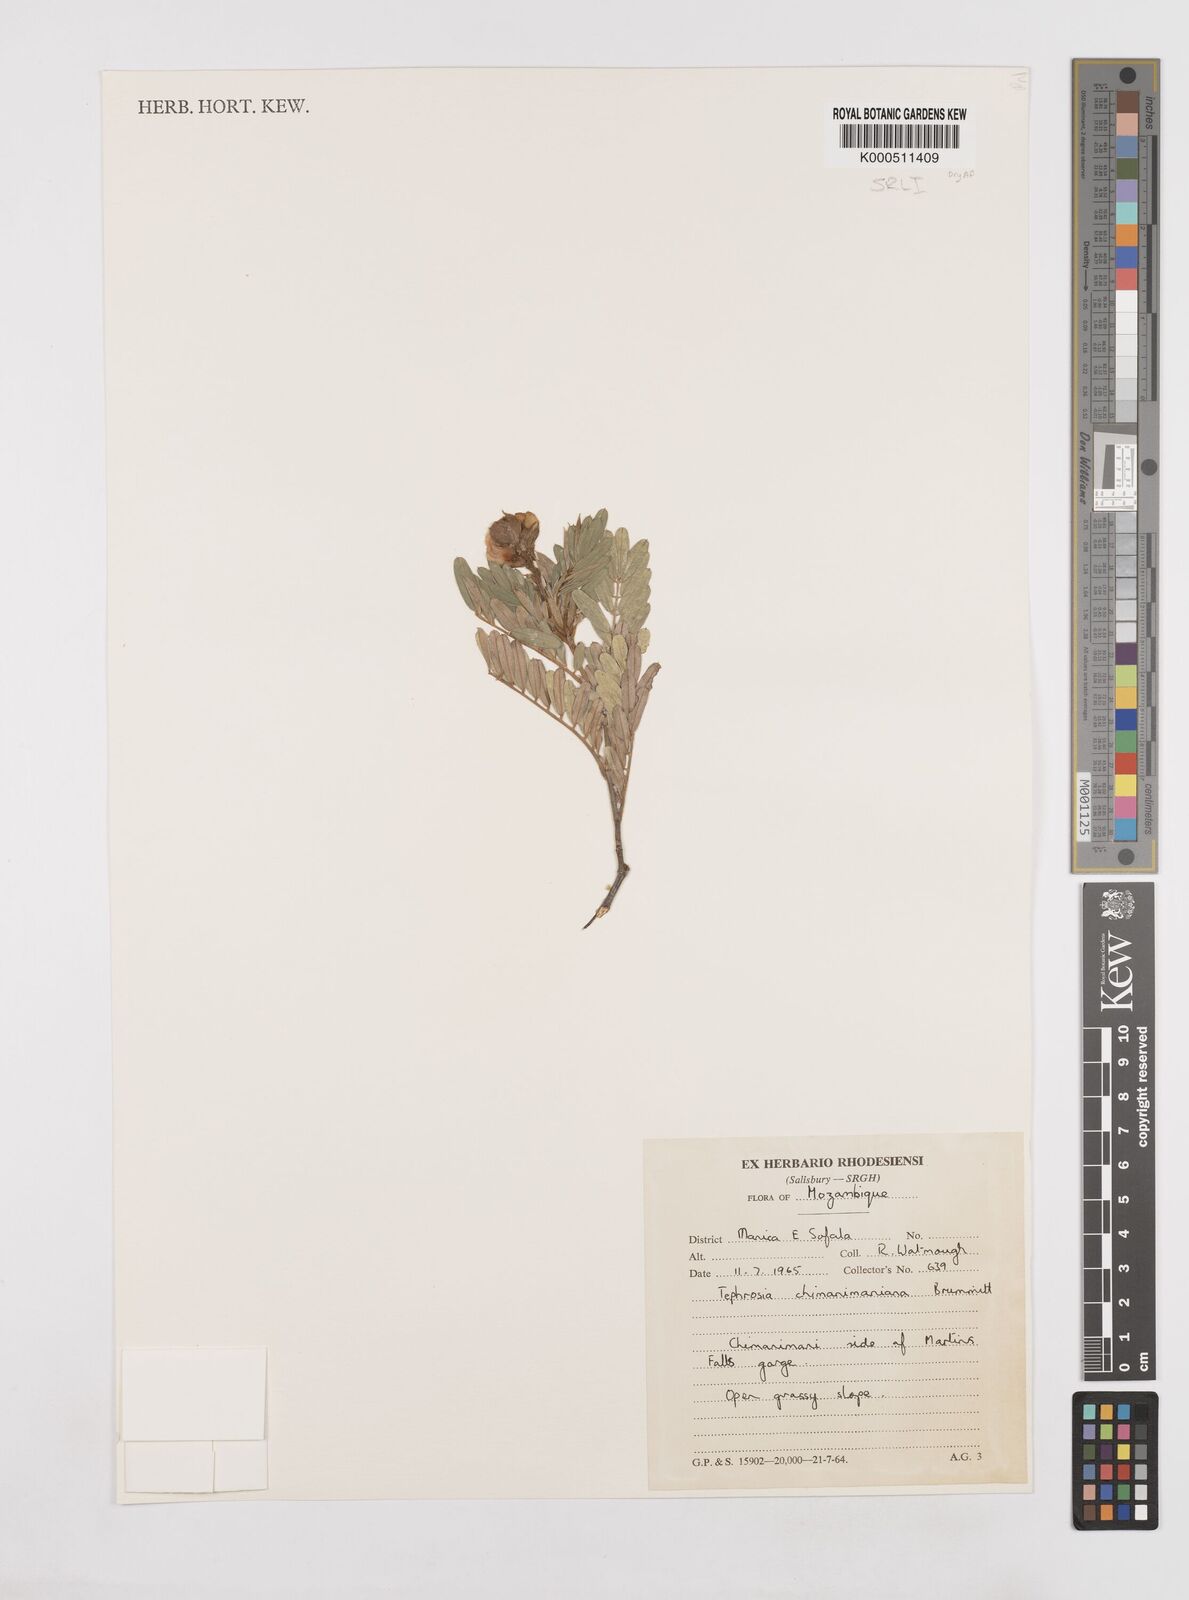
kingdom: Plantae
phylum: Tracheophyta
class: Magnoliopsida
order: Fabales
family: Fabaceae
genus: Tephrosia
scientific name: Tephrosia chimanimaniana
